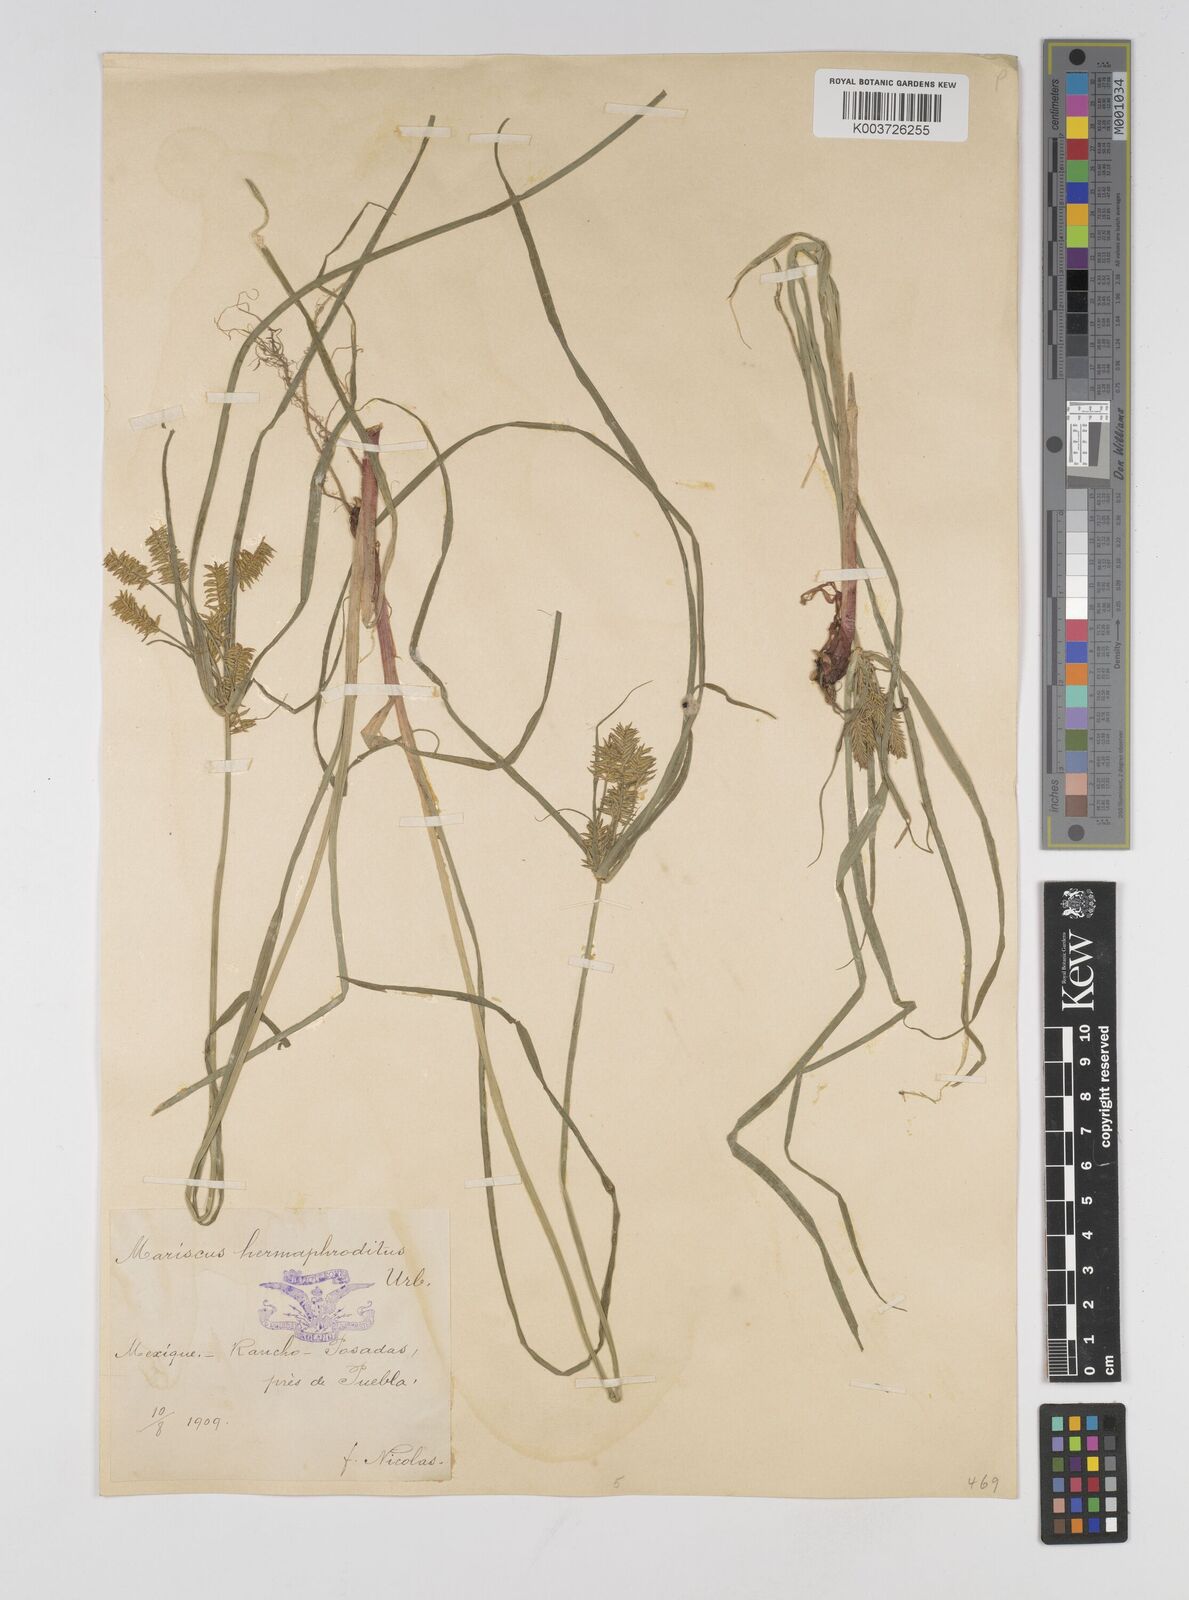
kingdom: Plantae
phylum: Tracheophyta
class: Liliopsida
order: Poales
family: Cyperaceae
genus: Cyperus
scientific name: Cyperus hermaphroditus
